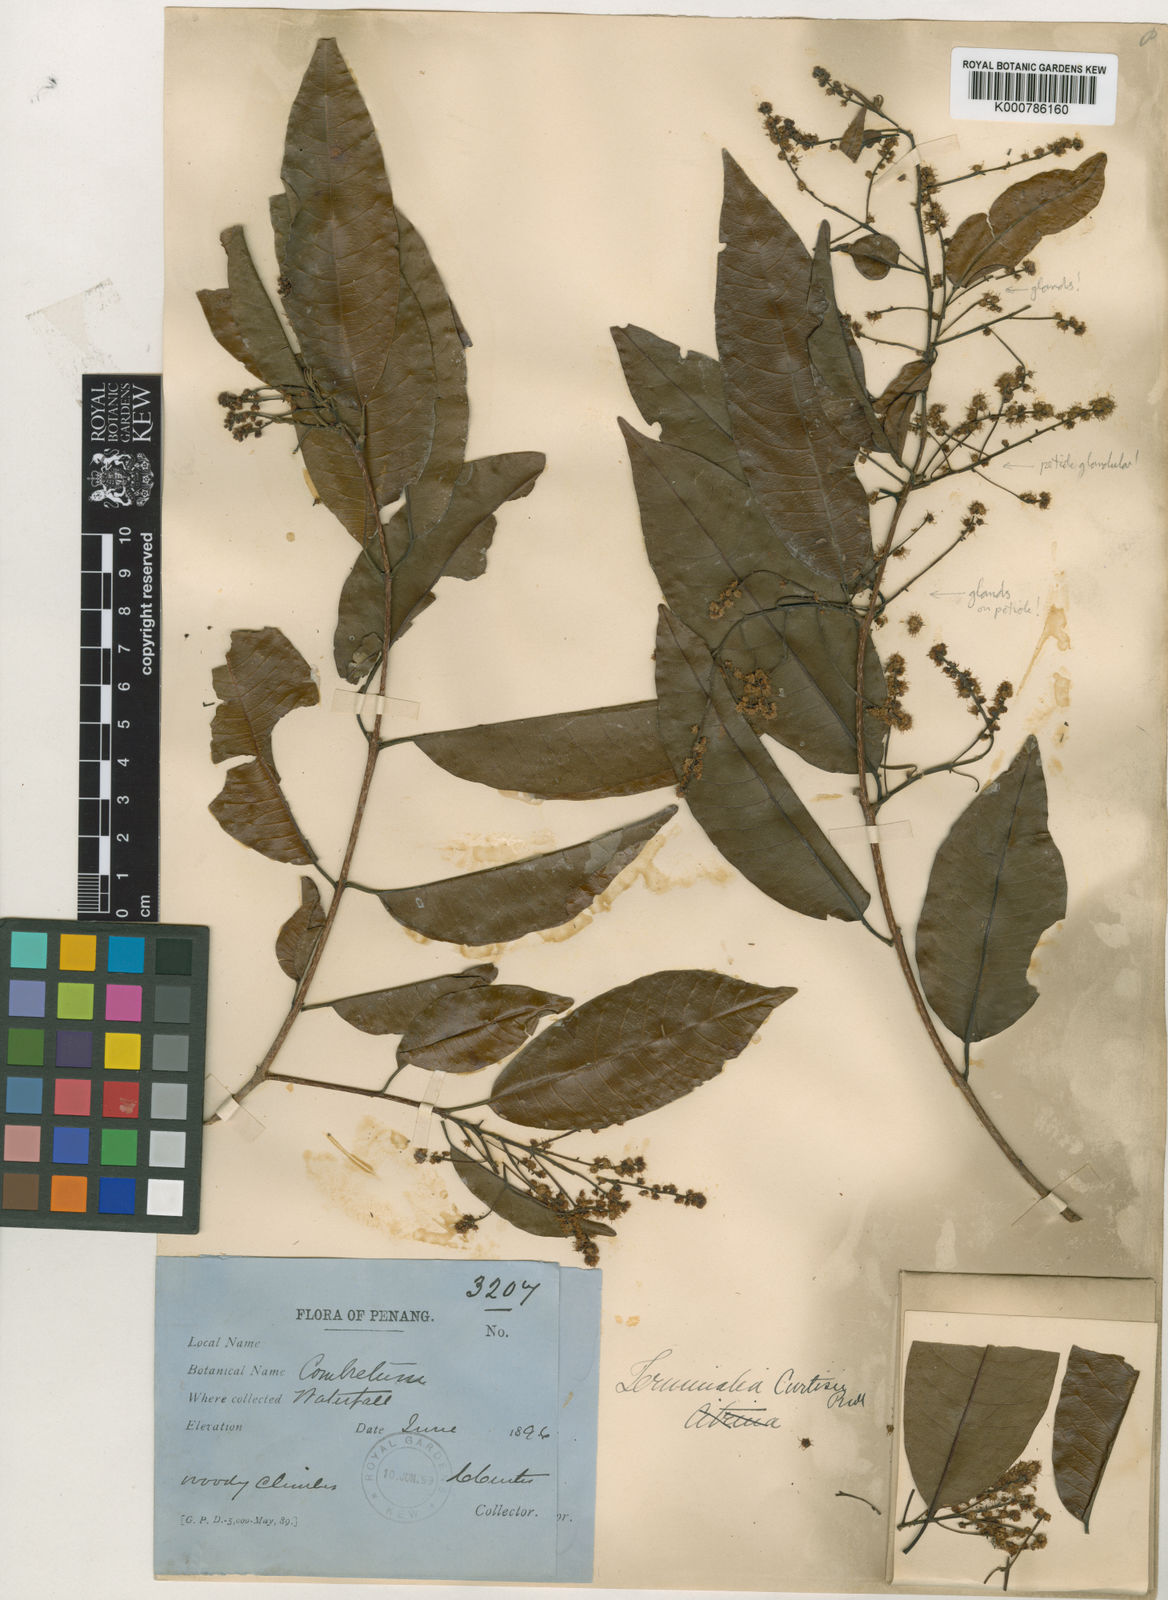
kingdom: Plantae
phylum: Tracheophyta
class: Magnoliopsida
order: Myrtales
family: Combretaceae
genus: Terminalia
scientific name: Terminalia
